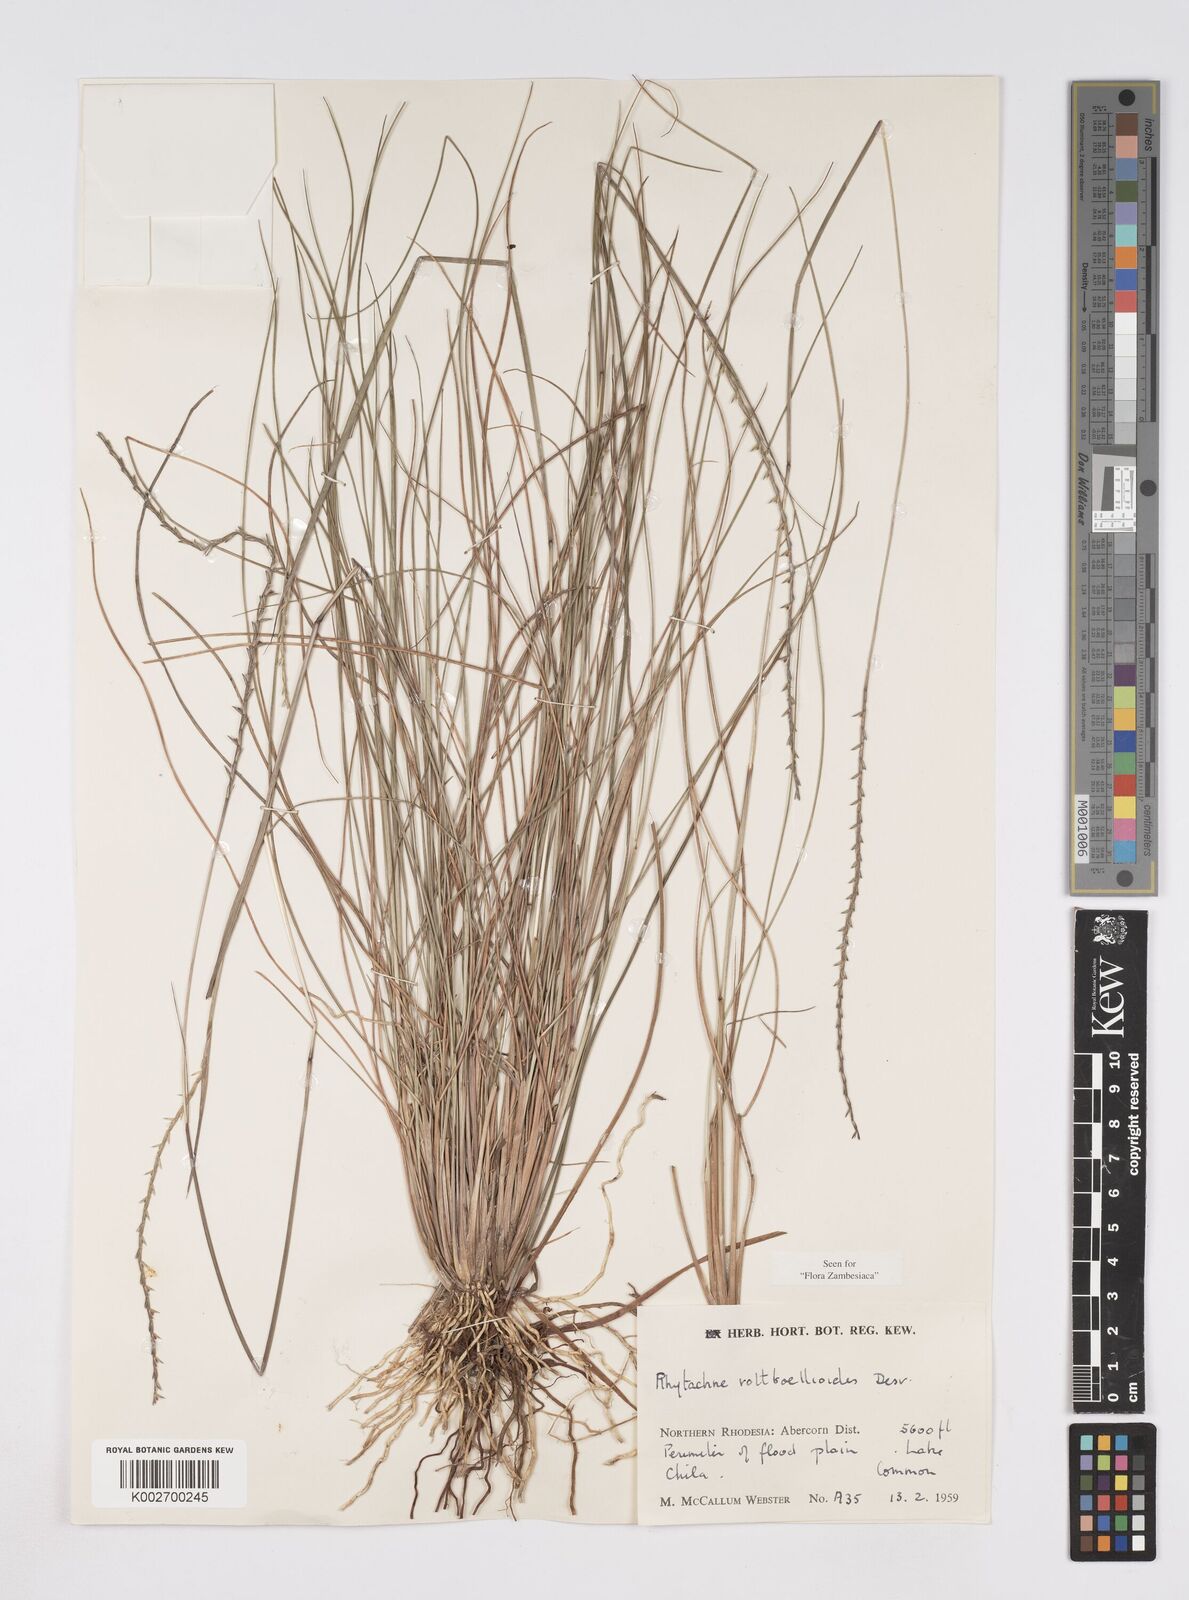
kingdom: Plantae
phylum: Tracheophyta
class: Liliopsida
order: Poales
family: Poaceae
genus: Rhytachne
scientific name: Rhytachne rottboellioides
